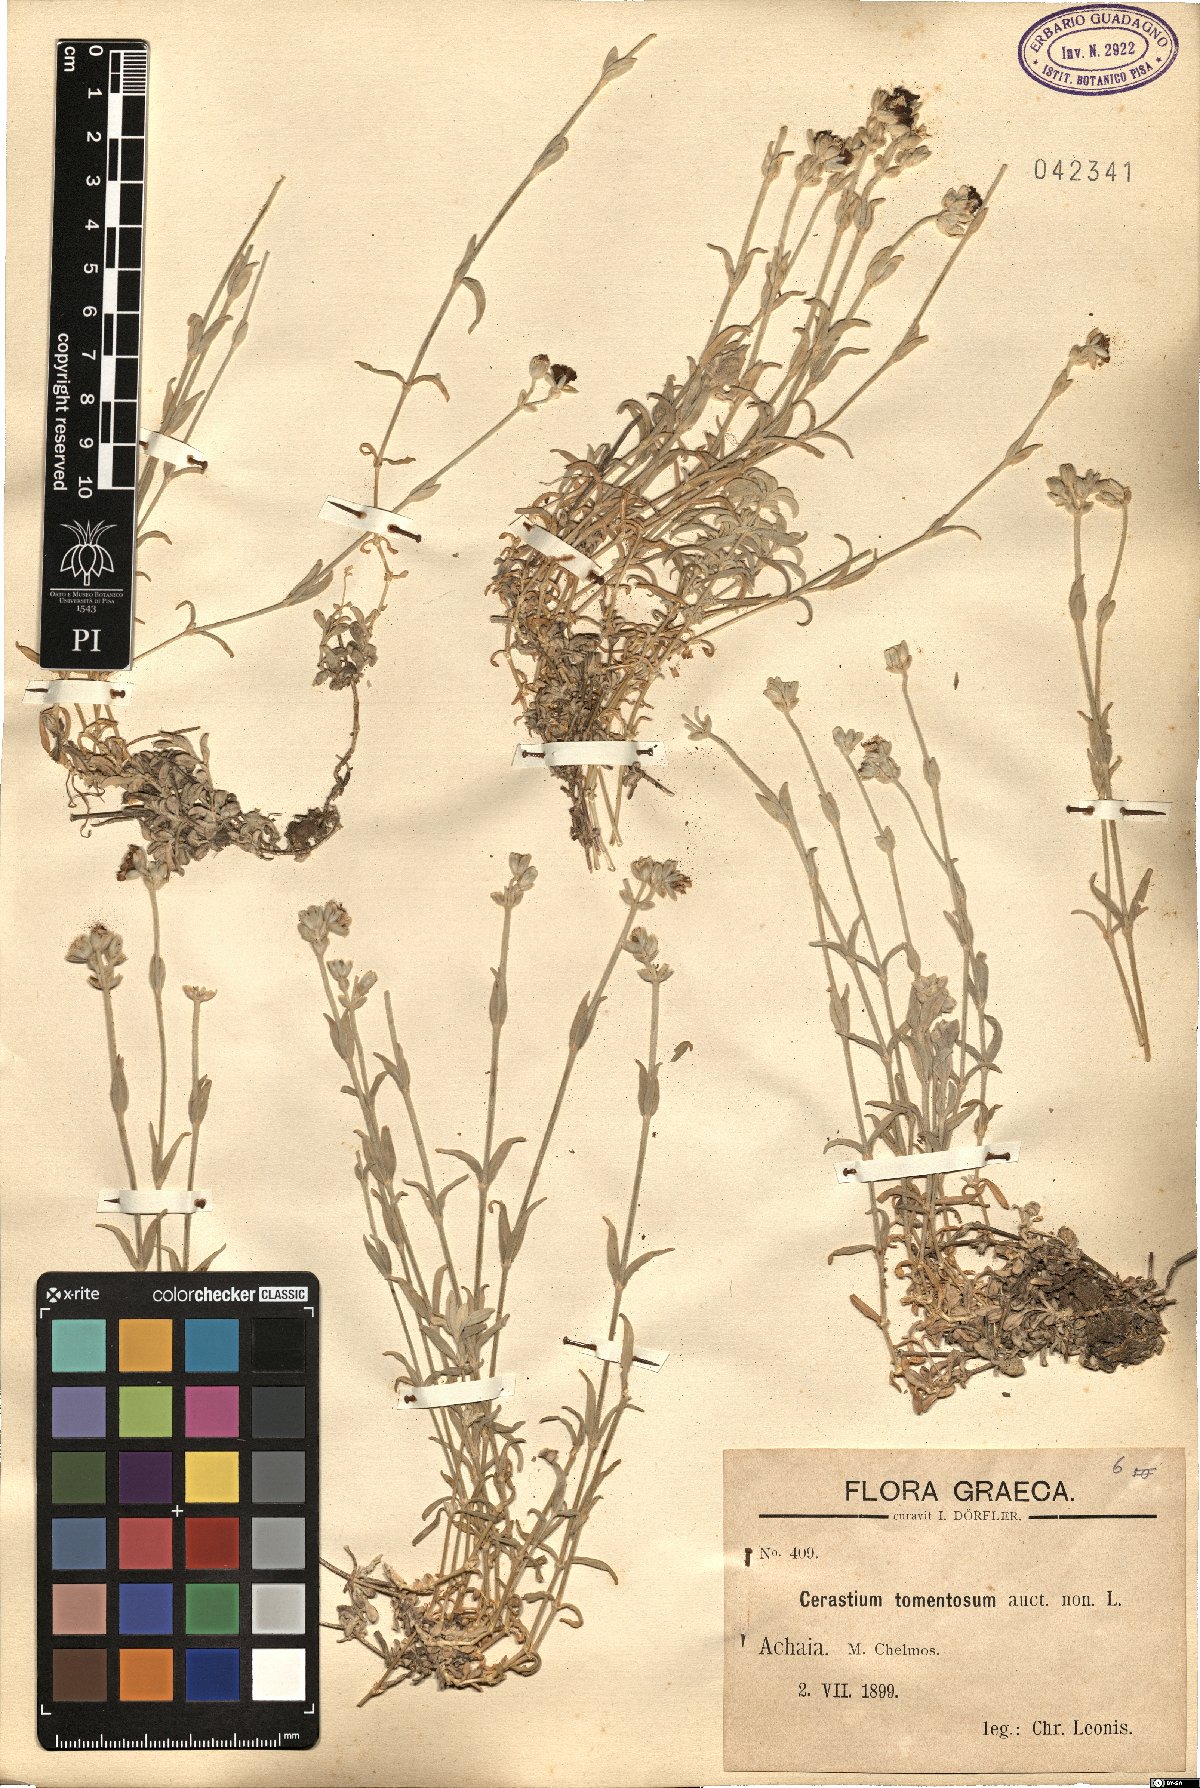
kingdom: Plantae
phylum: Tracheophyta
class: Magnoliopsida
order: Caryophyllales
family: Caryophyllaceae
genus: Cerastium
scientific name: Cerastium tomentosum
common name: Snow-in-summer
